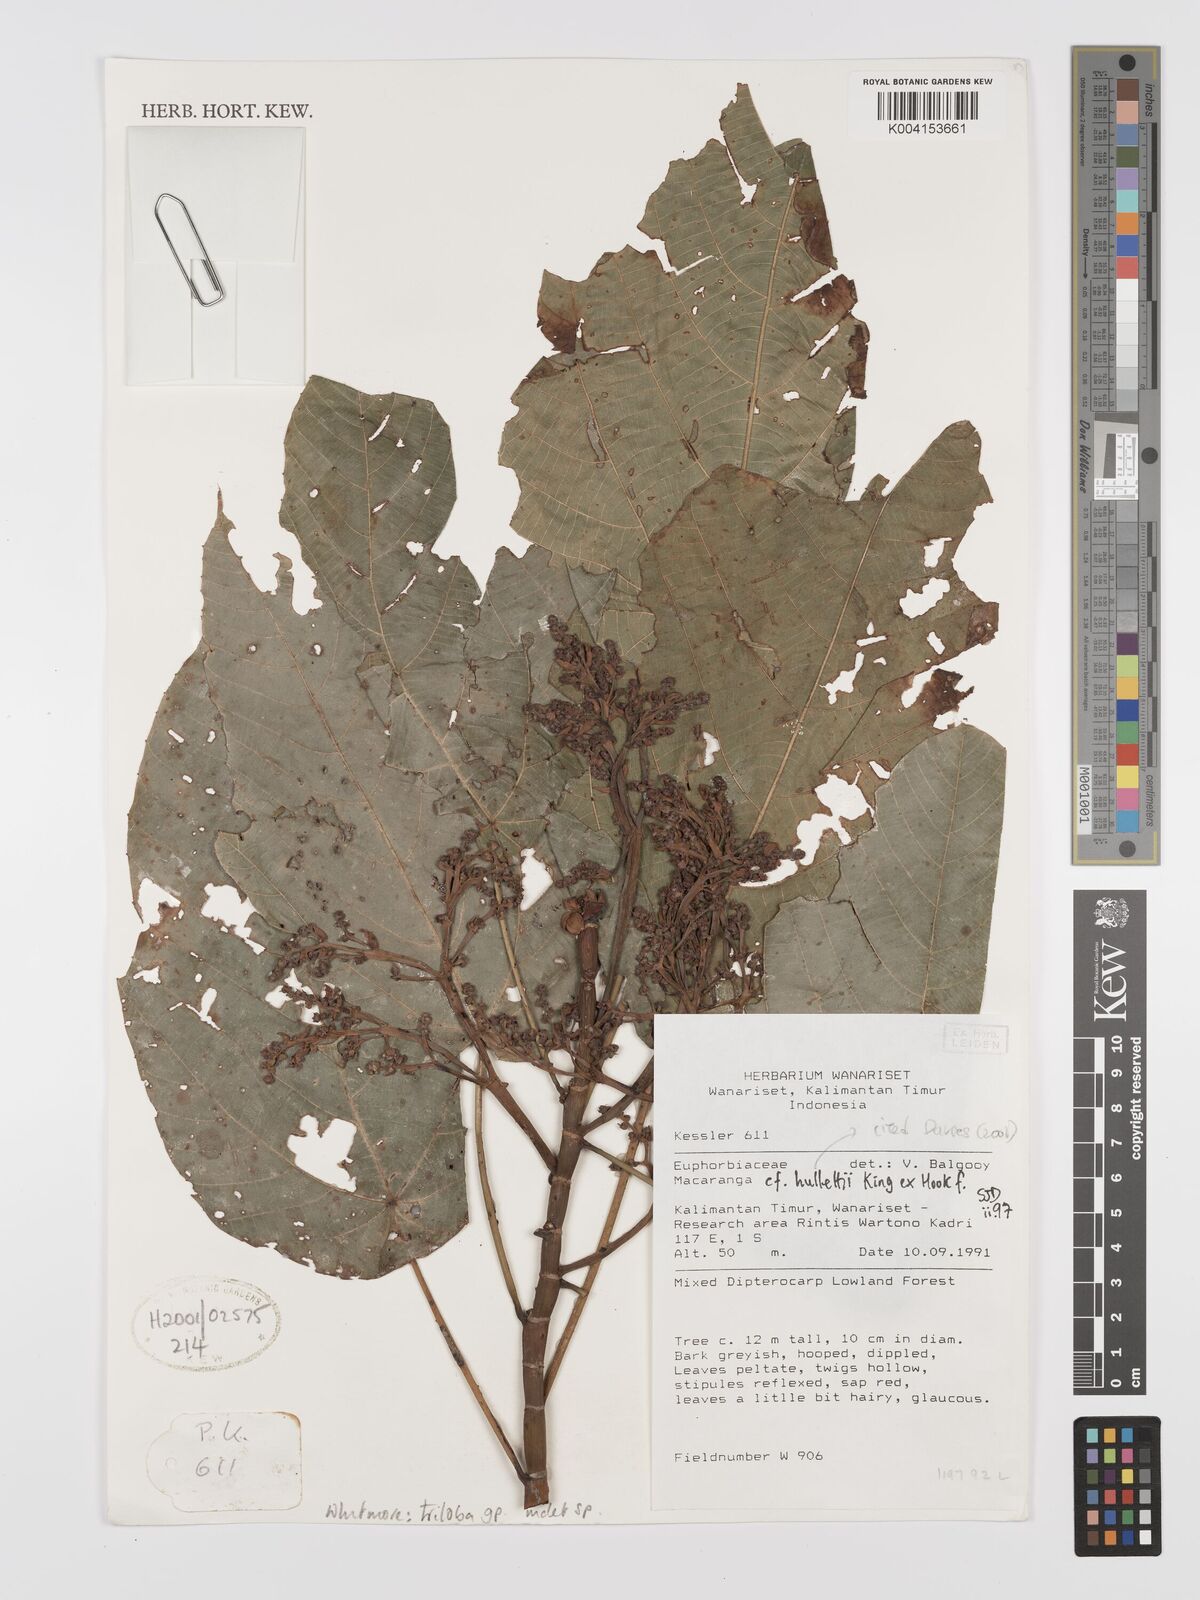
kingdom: Plantae
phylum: Tracheophyta
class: Magnoliopsida
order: Malpighiales
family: Euphorbiaceae
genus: Macaranga
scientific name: Macaranga triloba
